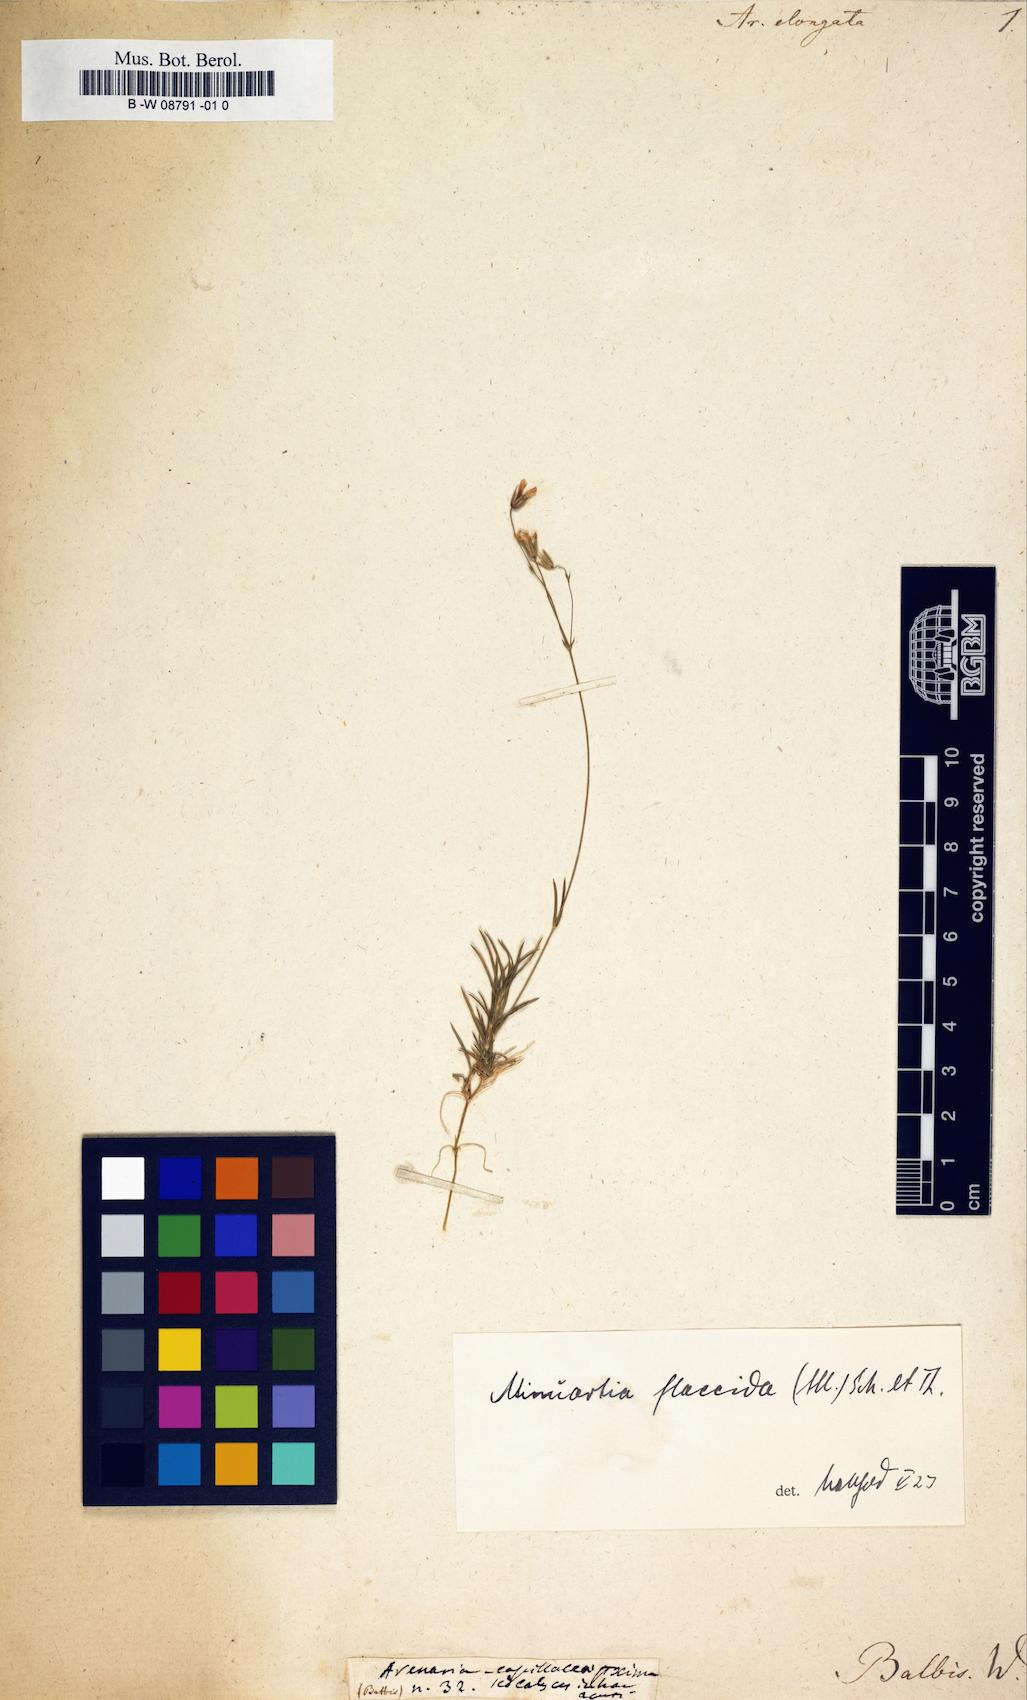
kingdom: Plantae
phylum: Tracheophyta
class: Magnoliopsida
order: Caryophyllales
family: Caryophyllaceae
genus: Sabulina
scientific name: Sabulina austriaca
